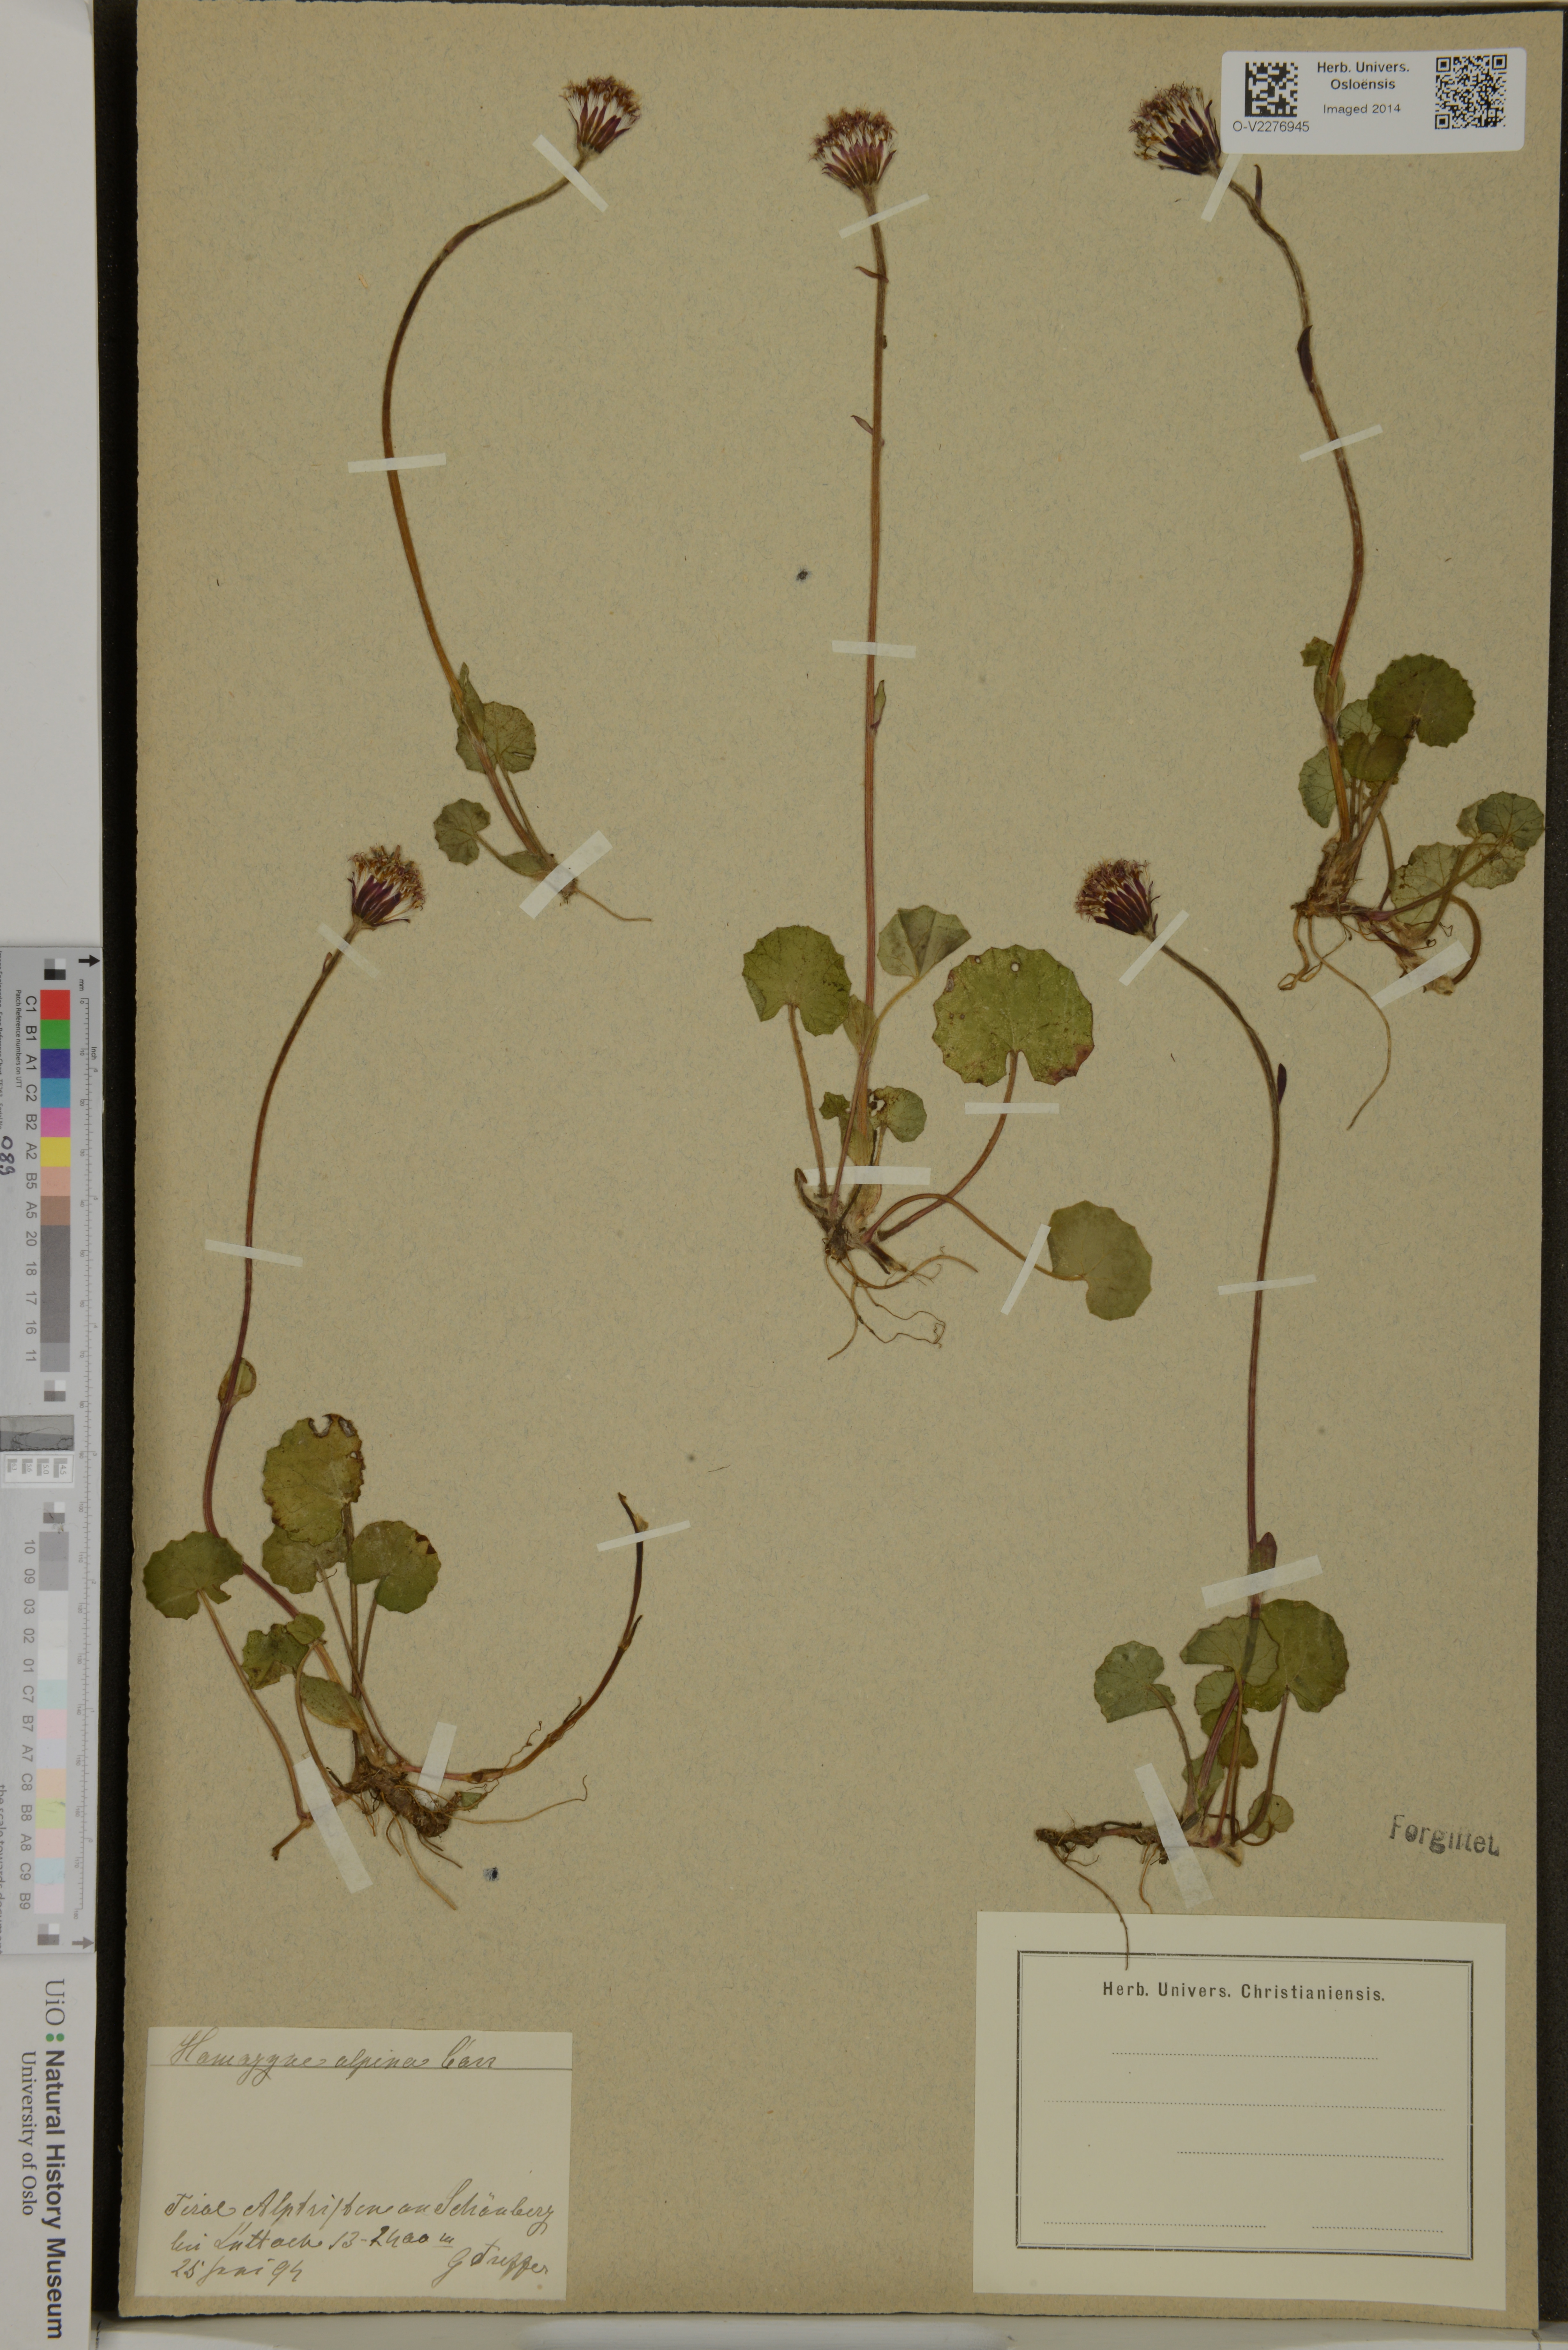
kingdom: Plantae
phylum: Tracheophyta
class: Magnoliopsida
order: Asterales
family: Asteraceae
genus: Homogyne
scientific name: Homogyne alpina
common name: Purple colt's-foot
